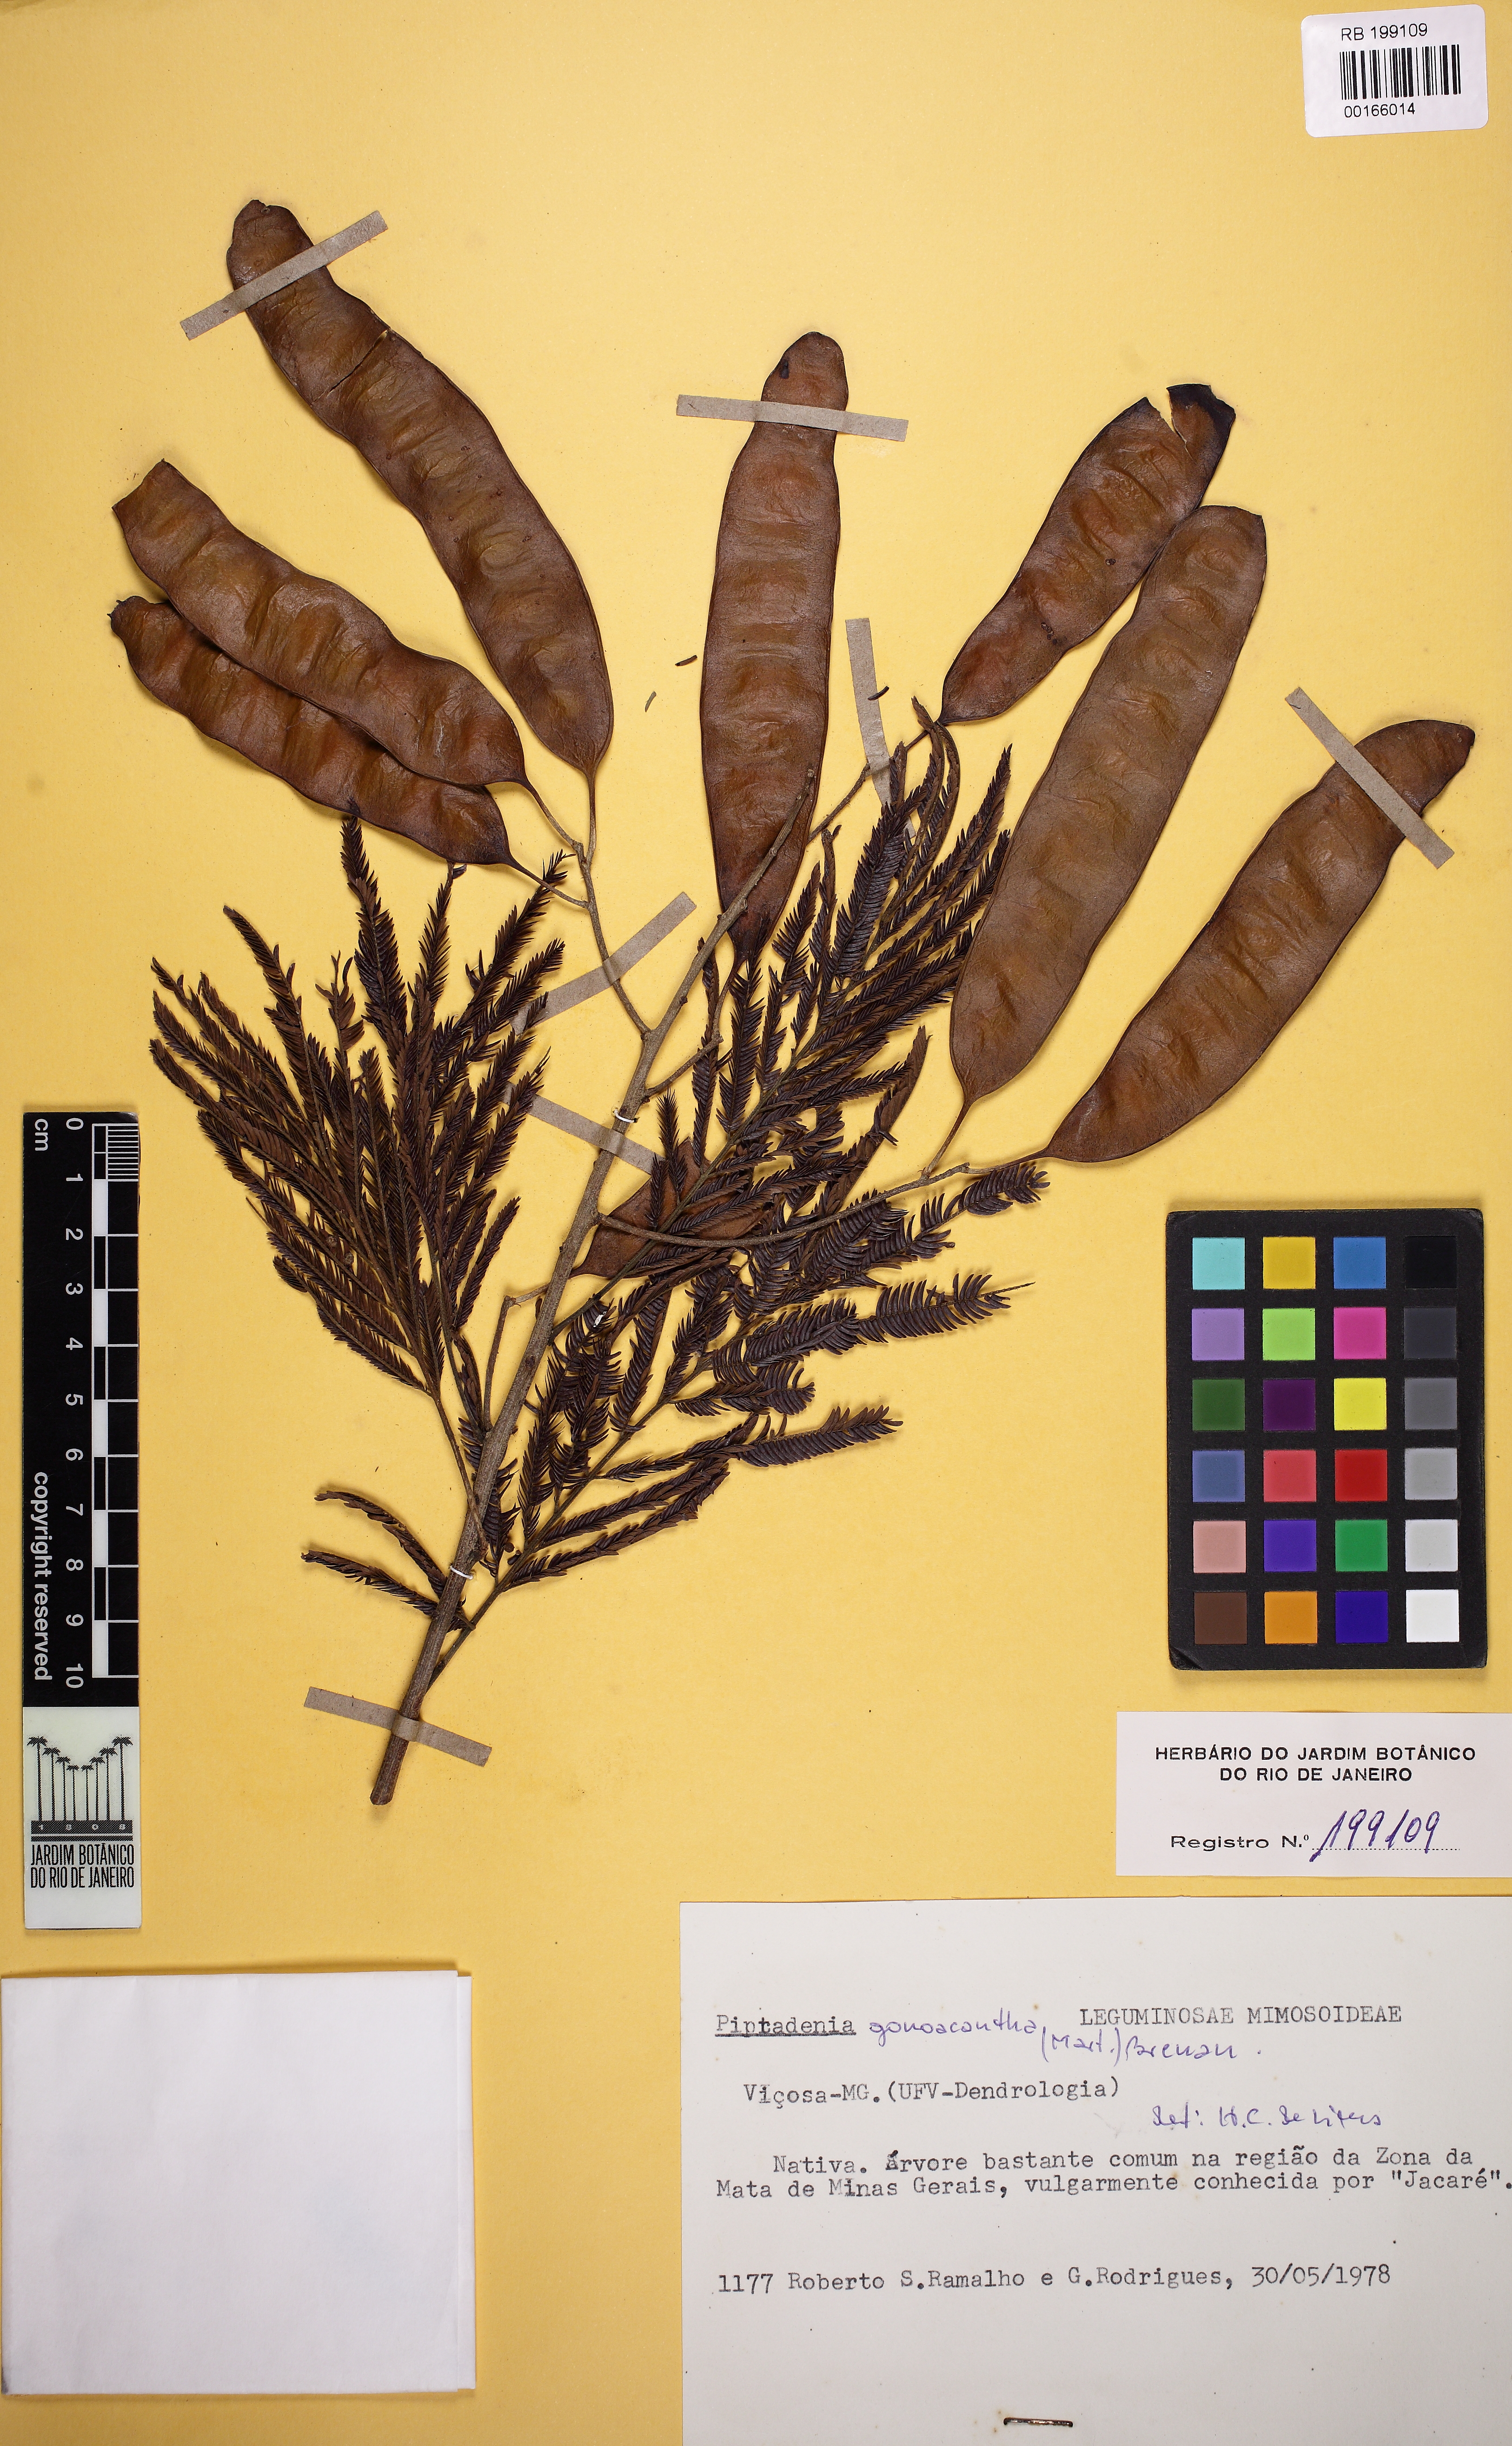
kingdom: Plantae
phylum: Tracheophyta
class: Magnoliopsida
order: Fabales
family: Fabaceae
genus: Piptadenia
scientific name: Piptadenia gonoacantha
